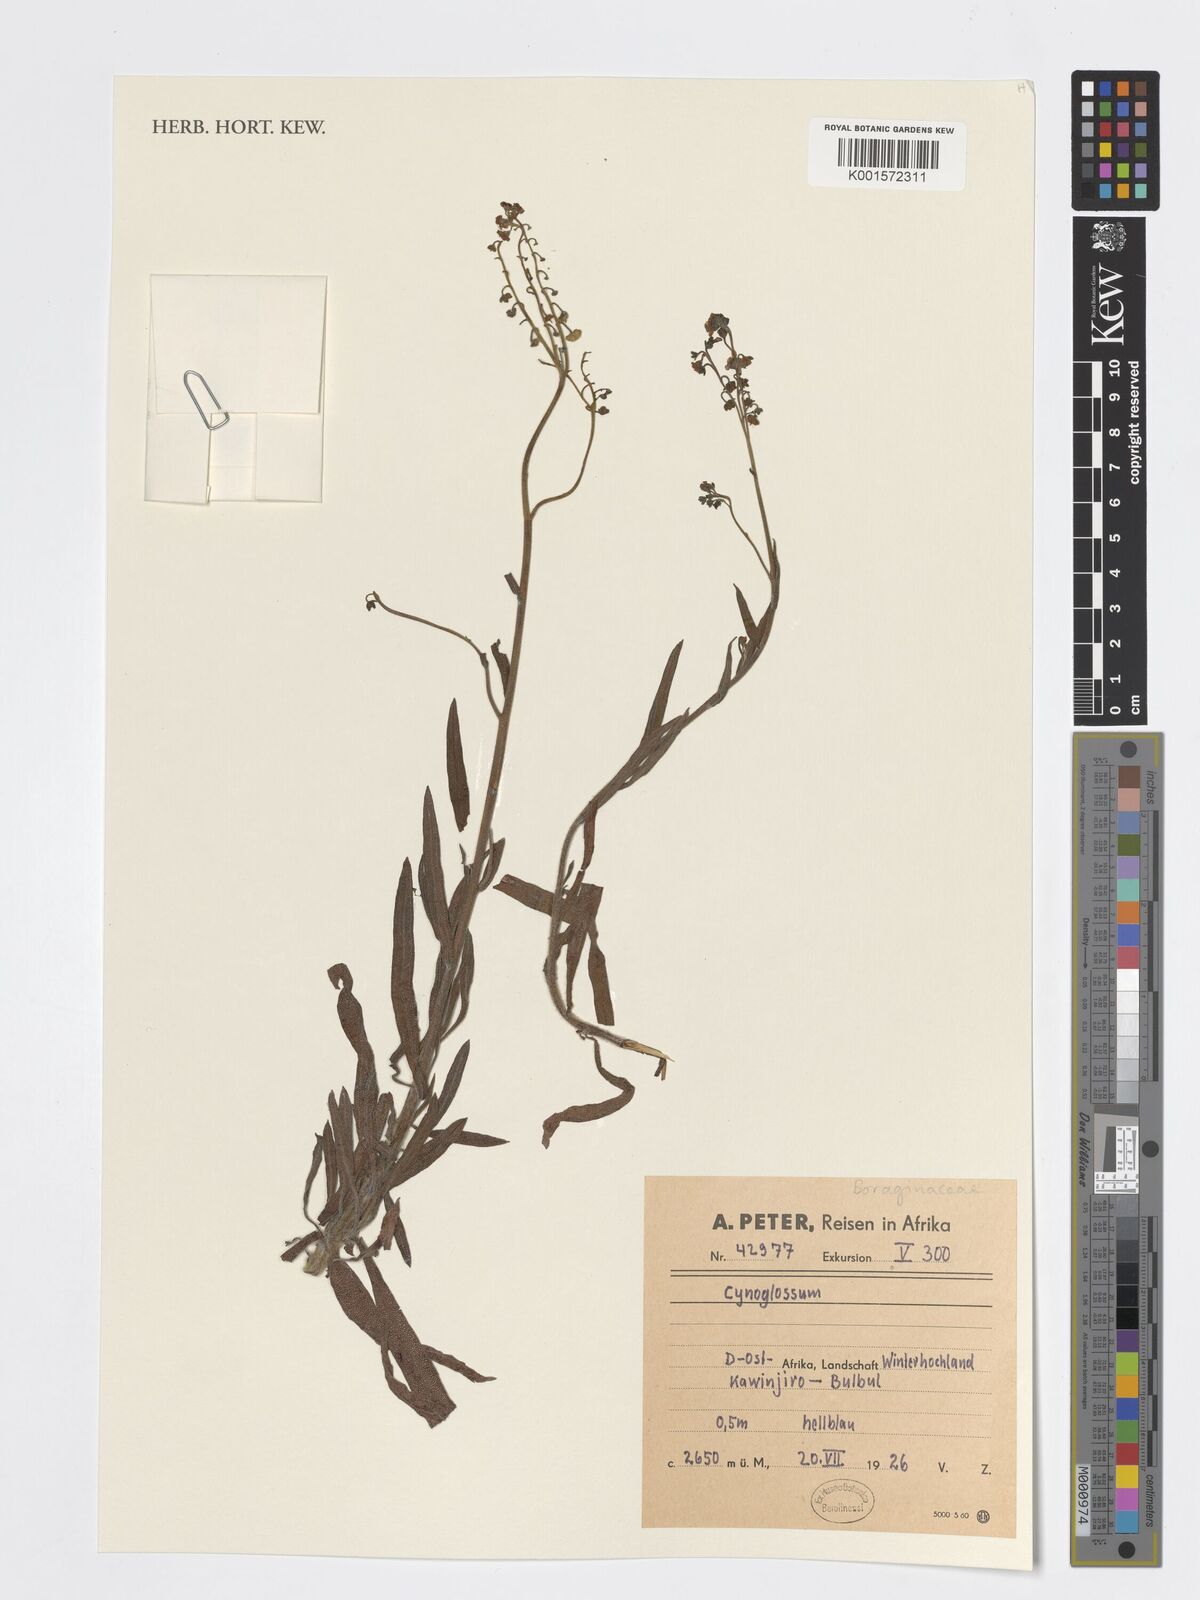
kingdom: Plantae
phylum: Tracheophyta
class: Magnoliopsida
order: Boraginales
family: Boraginaceae
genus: Cynoglossum
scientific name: Cynoglossum
